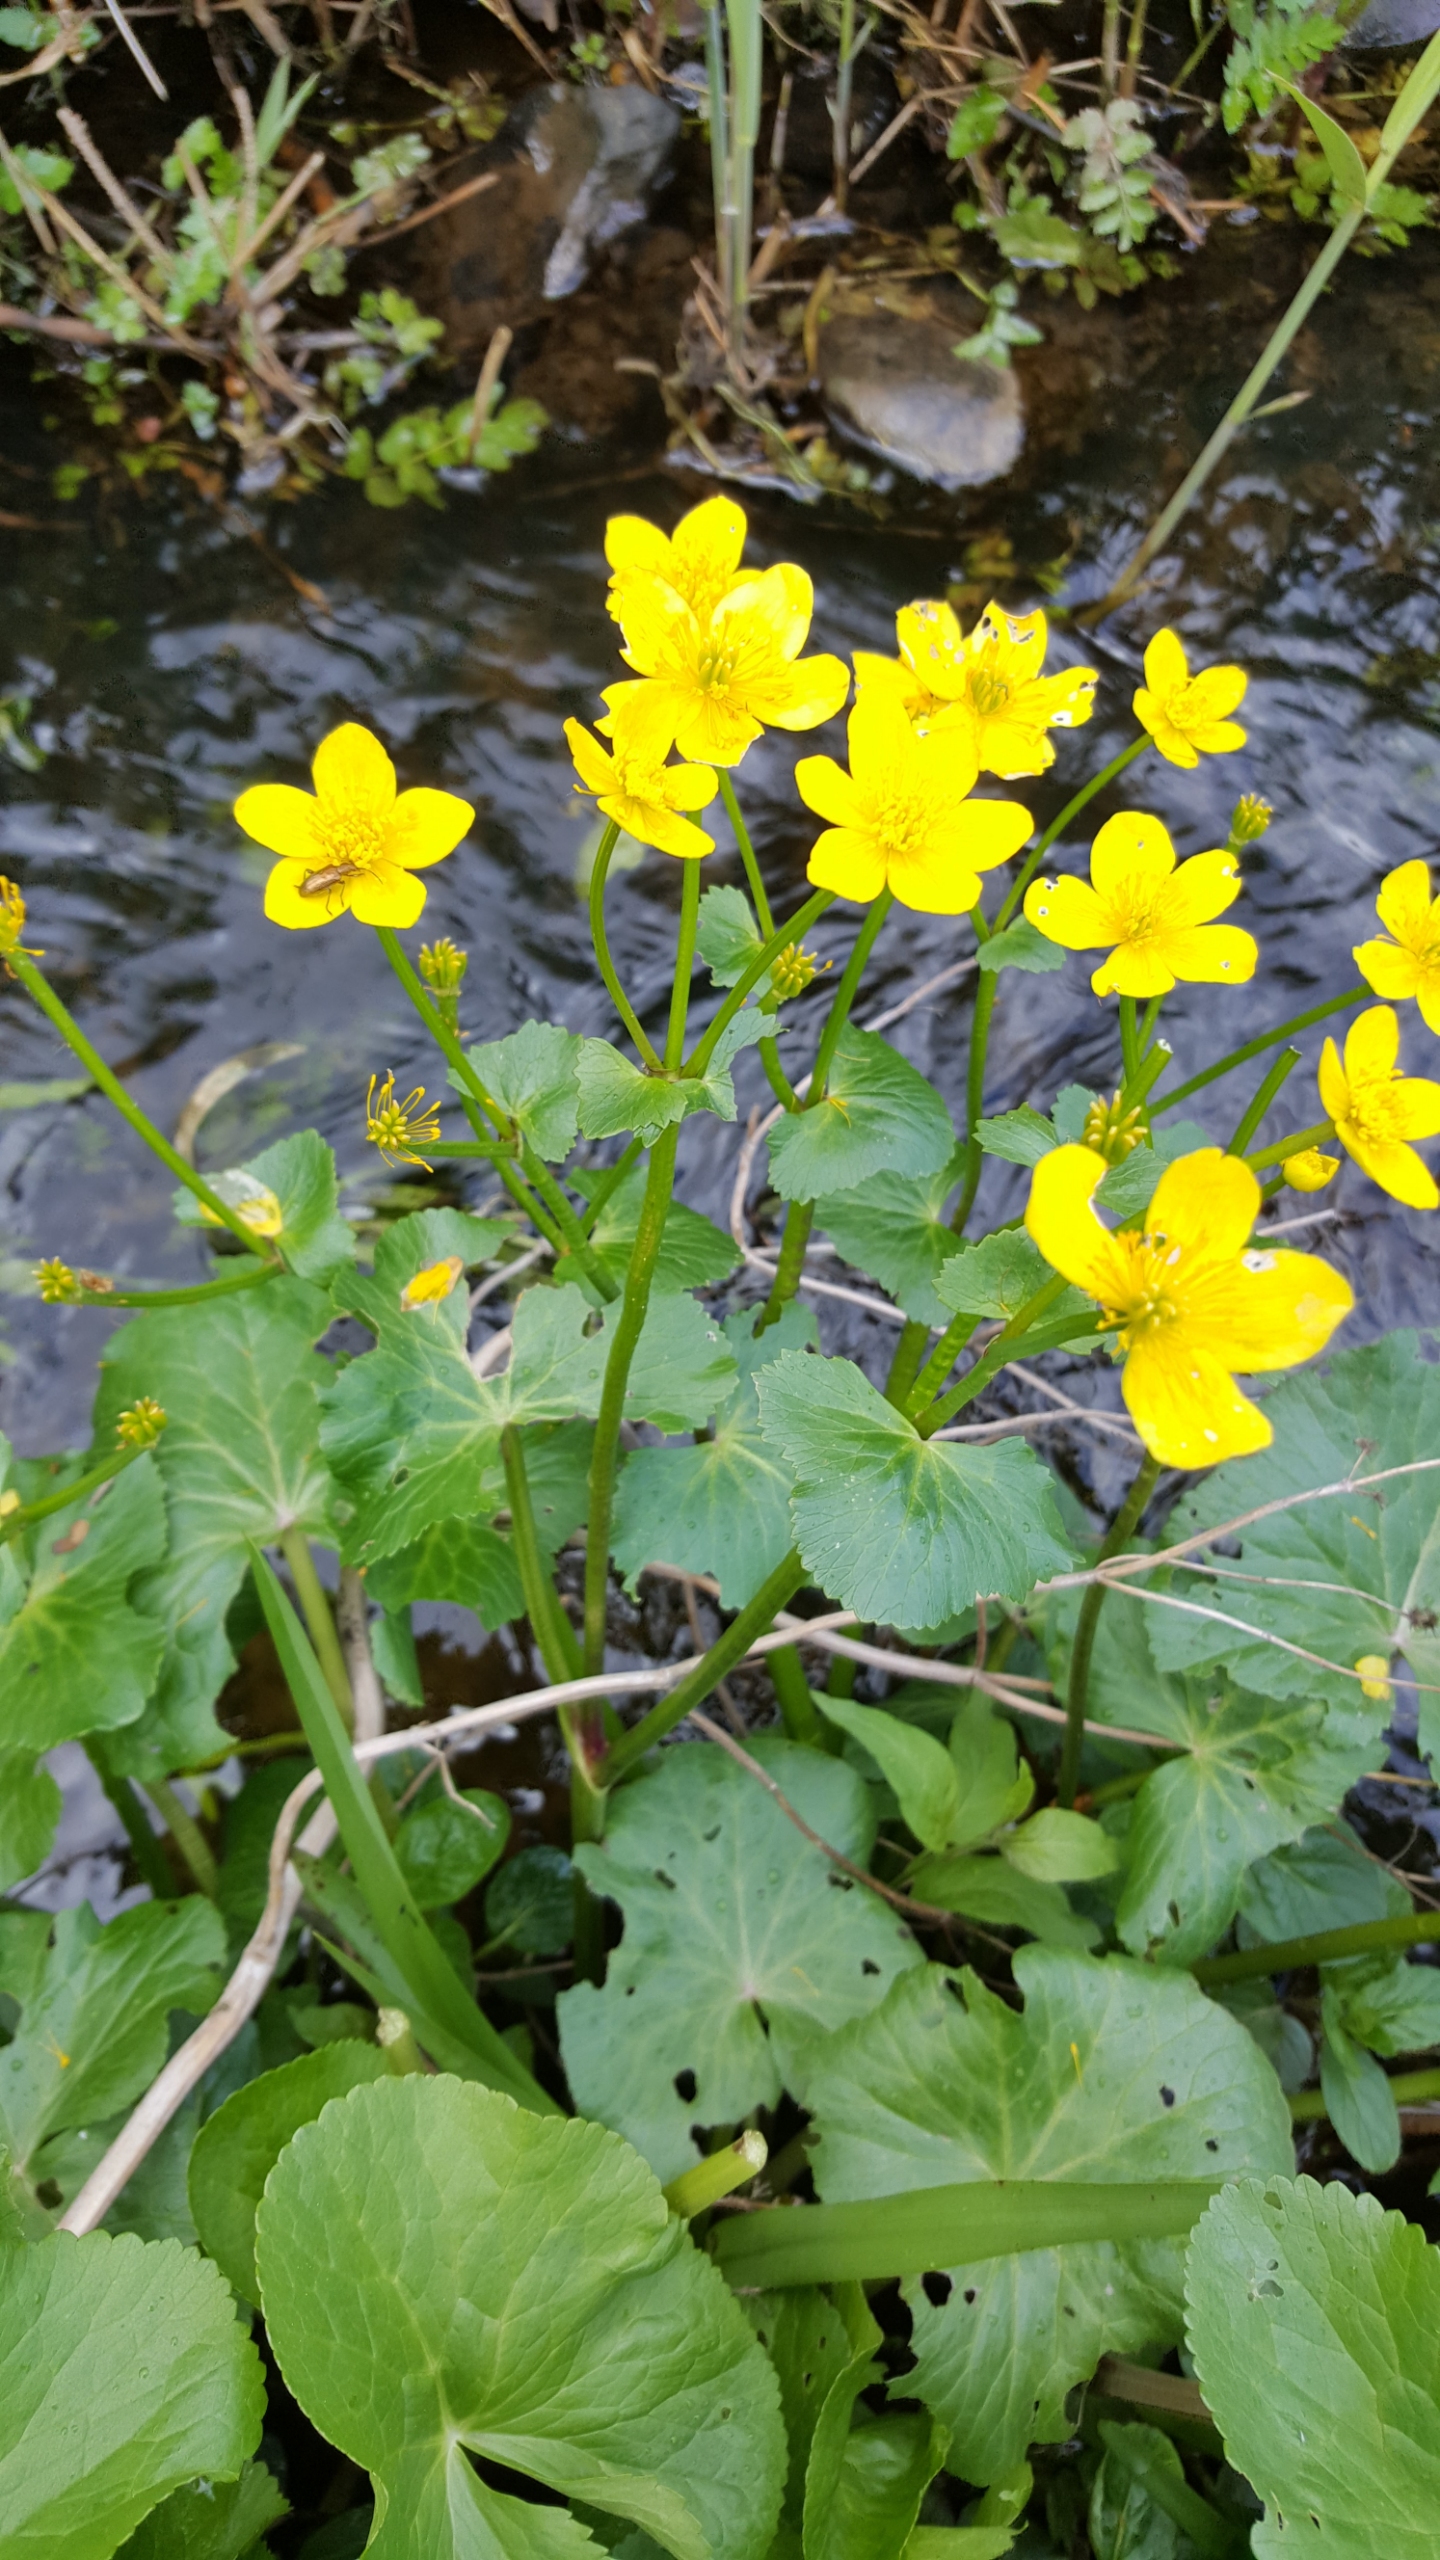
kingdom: Plantae
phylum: Tracheophyta
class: Magnoliopsida
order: Ranunculales
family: Ranunculaceae
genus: Caltha
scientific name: Caltha palustris
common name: Eng-kabbeleje
